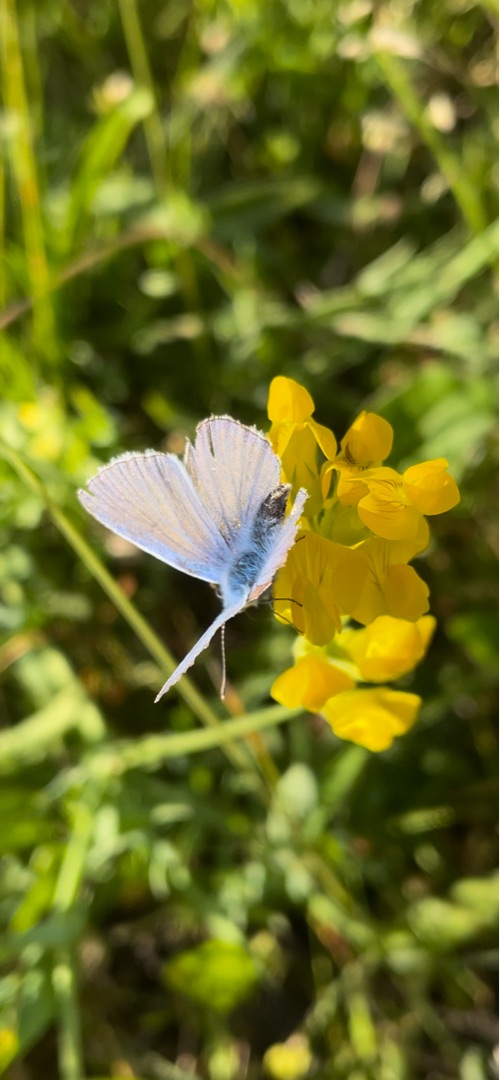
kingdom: Animalia
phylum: Arthropoda
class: Insecta
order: Lepidoptera
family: Lycaenidae
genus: Polyommatus
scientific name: Polyommatus icarus
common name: Almindelig blåfugl
